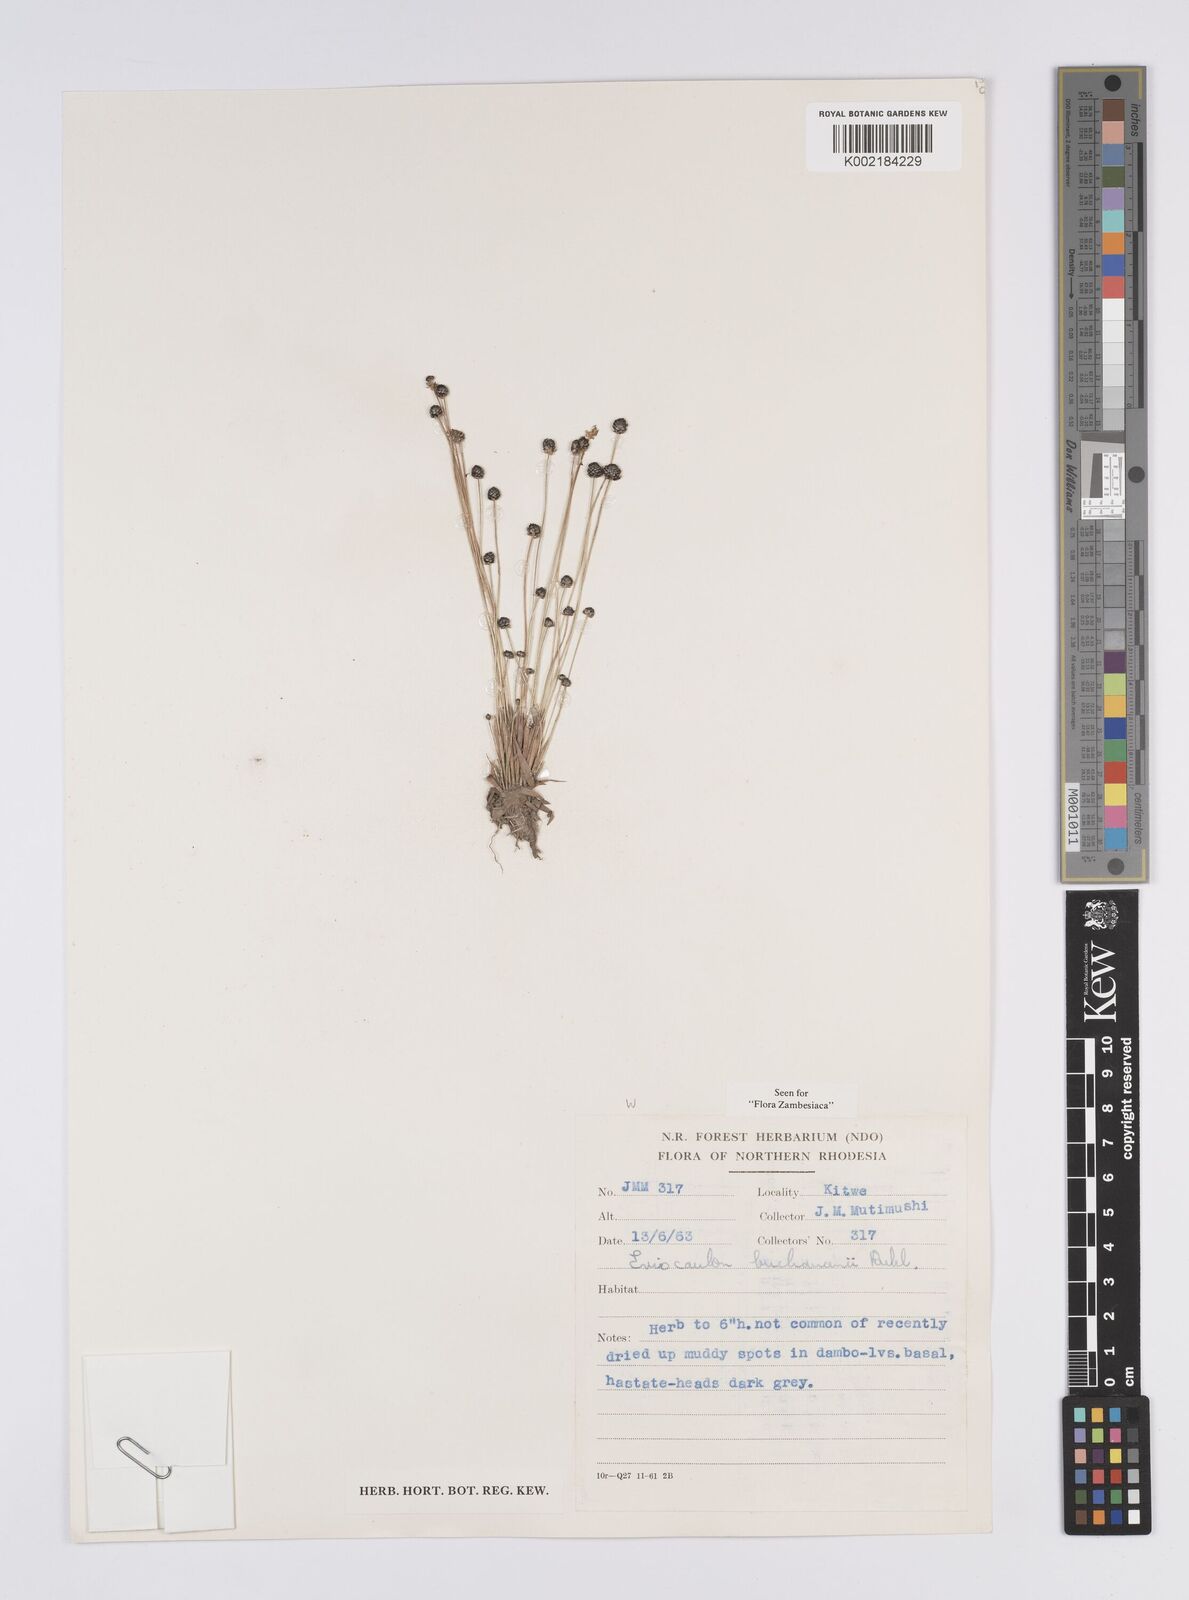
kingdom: Plantae
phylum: Tracheophyta
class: Liliopsida
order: Poales
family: Eriocaulaceae
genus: Eriocaulon
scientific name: Eriocaulon buchananii
